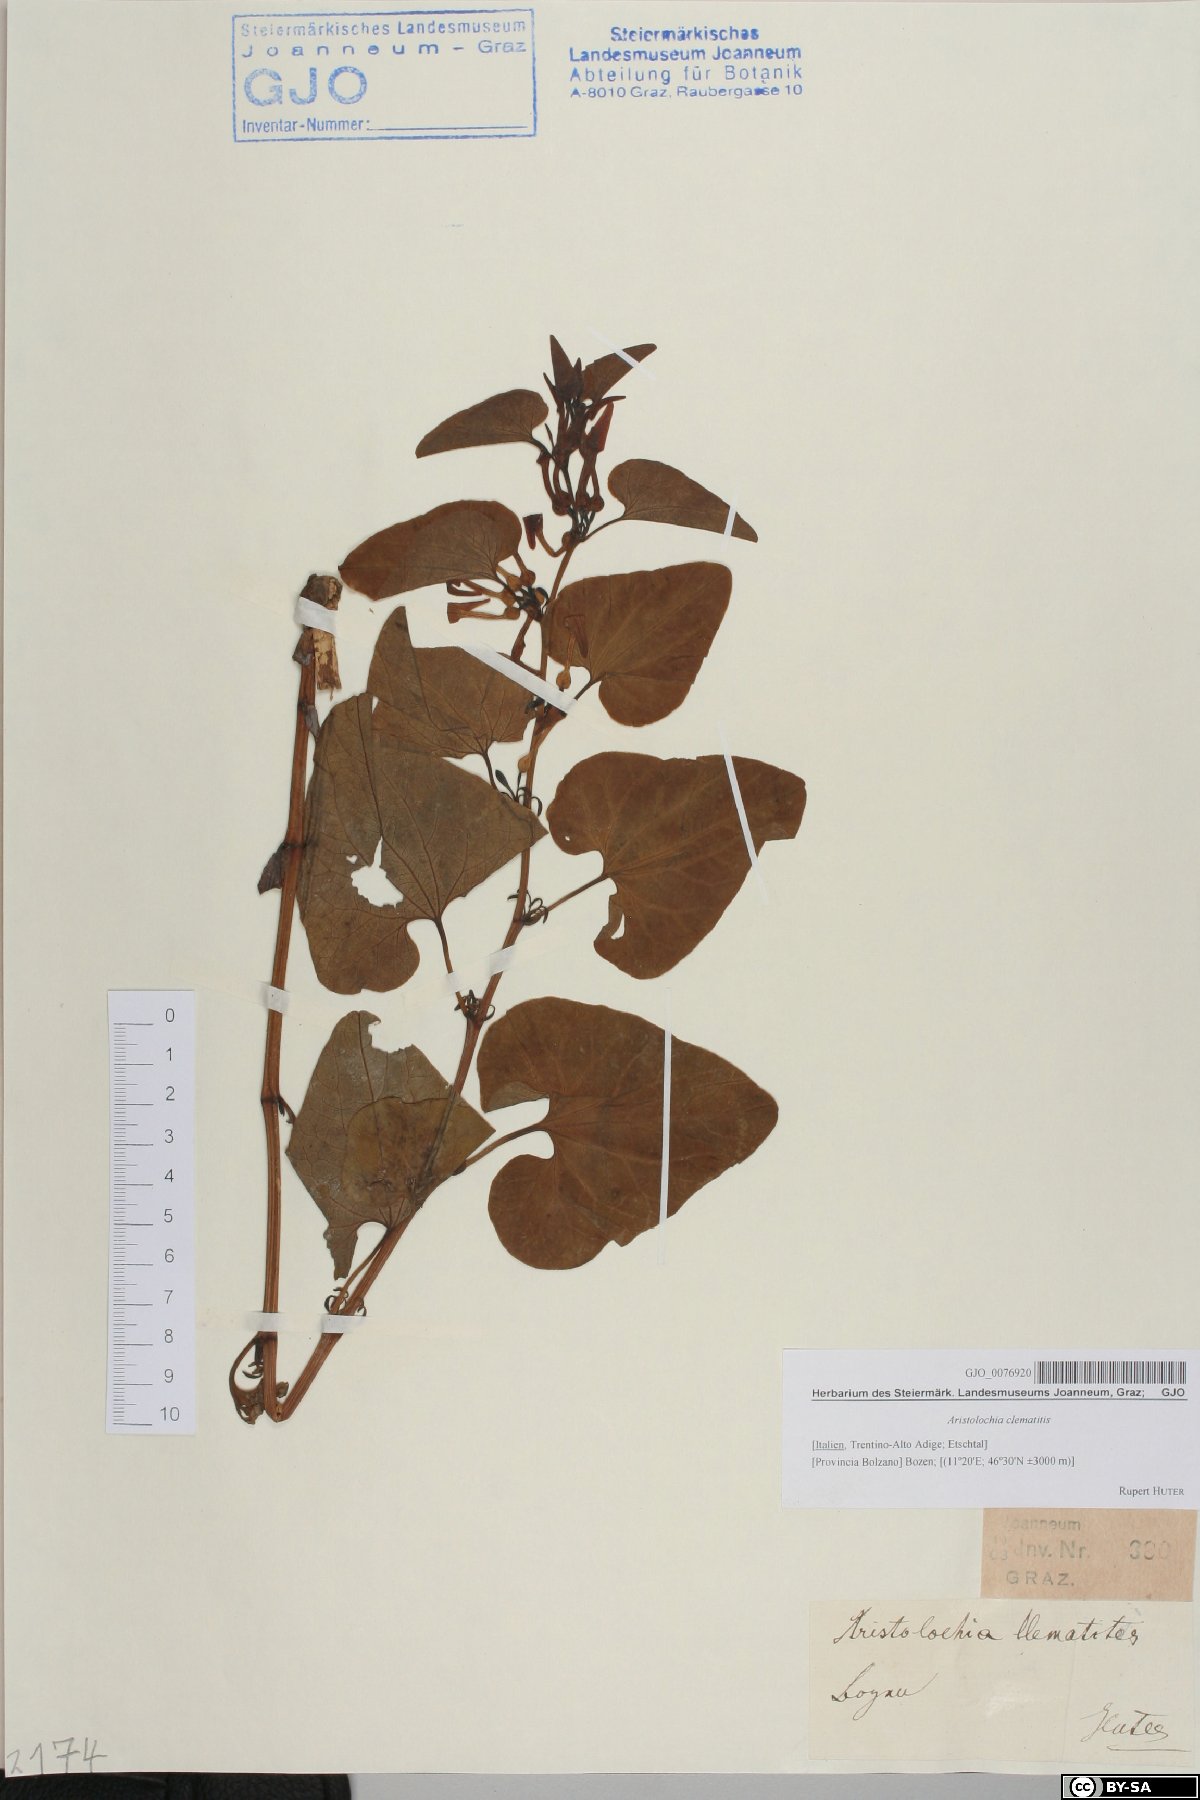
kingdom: Plantae
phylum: Tracheophyta
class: Magnoliopsida
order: Piperales
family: Aristolochiaceae
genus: Aristolochia
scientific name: Aristolochia clematitis
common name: Birthwort
